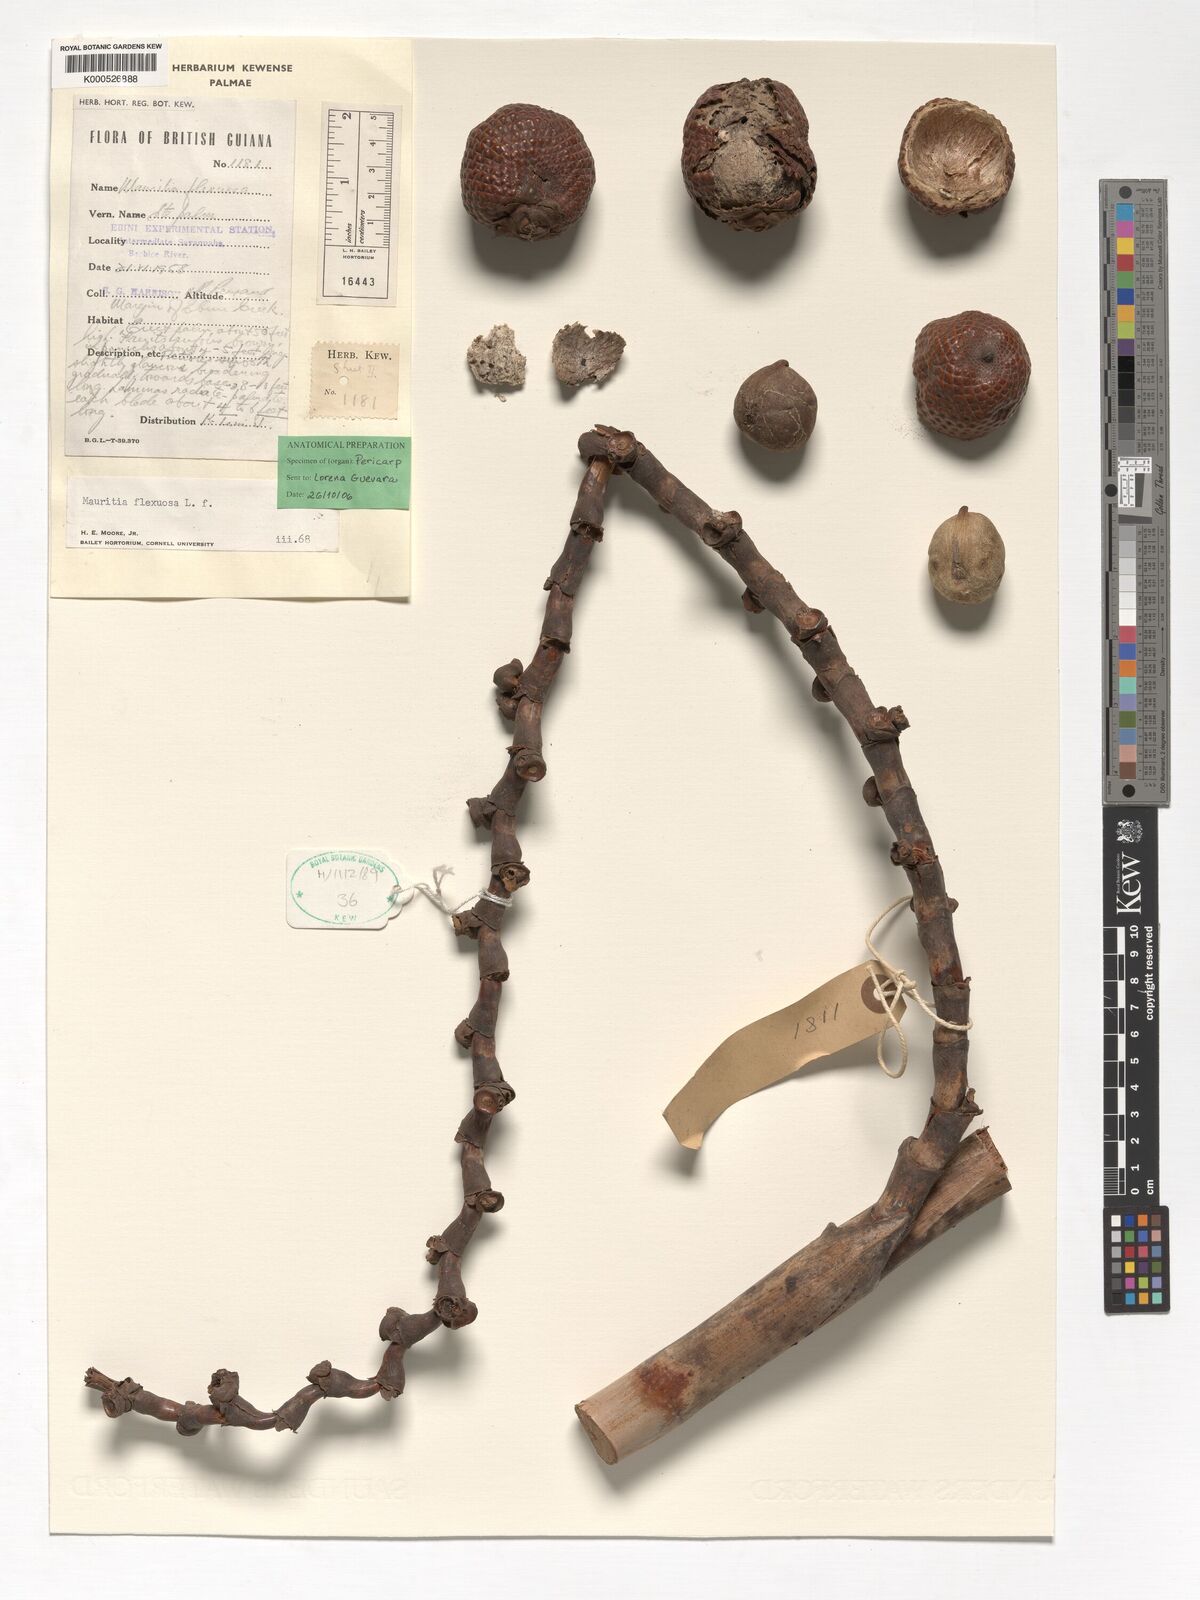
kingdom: Plantae
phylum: Tracheophyta
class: Liliopsida
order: Arecales
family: Arecaceae
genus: Mauritia
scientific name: Mauritia flexuosa
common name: Tree-of-life
